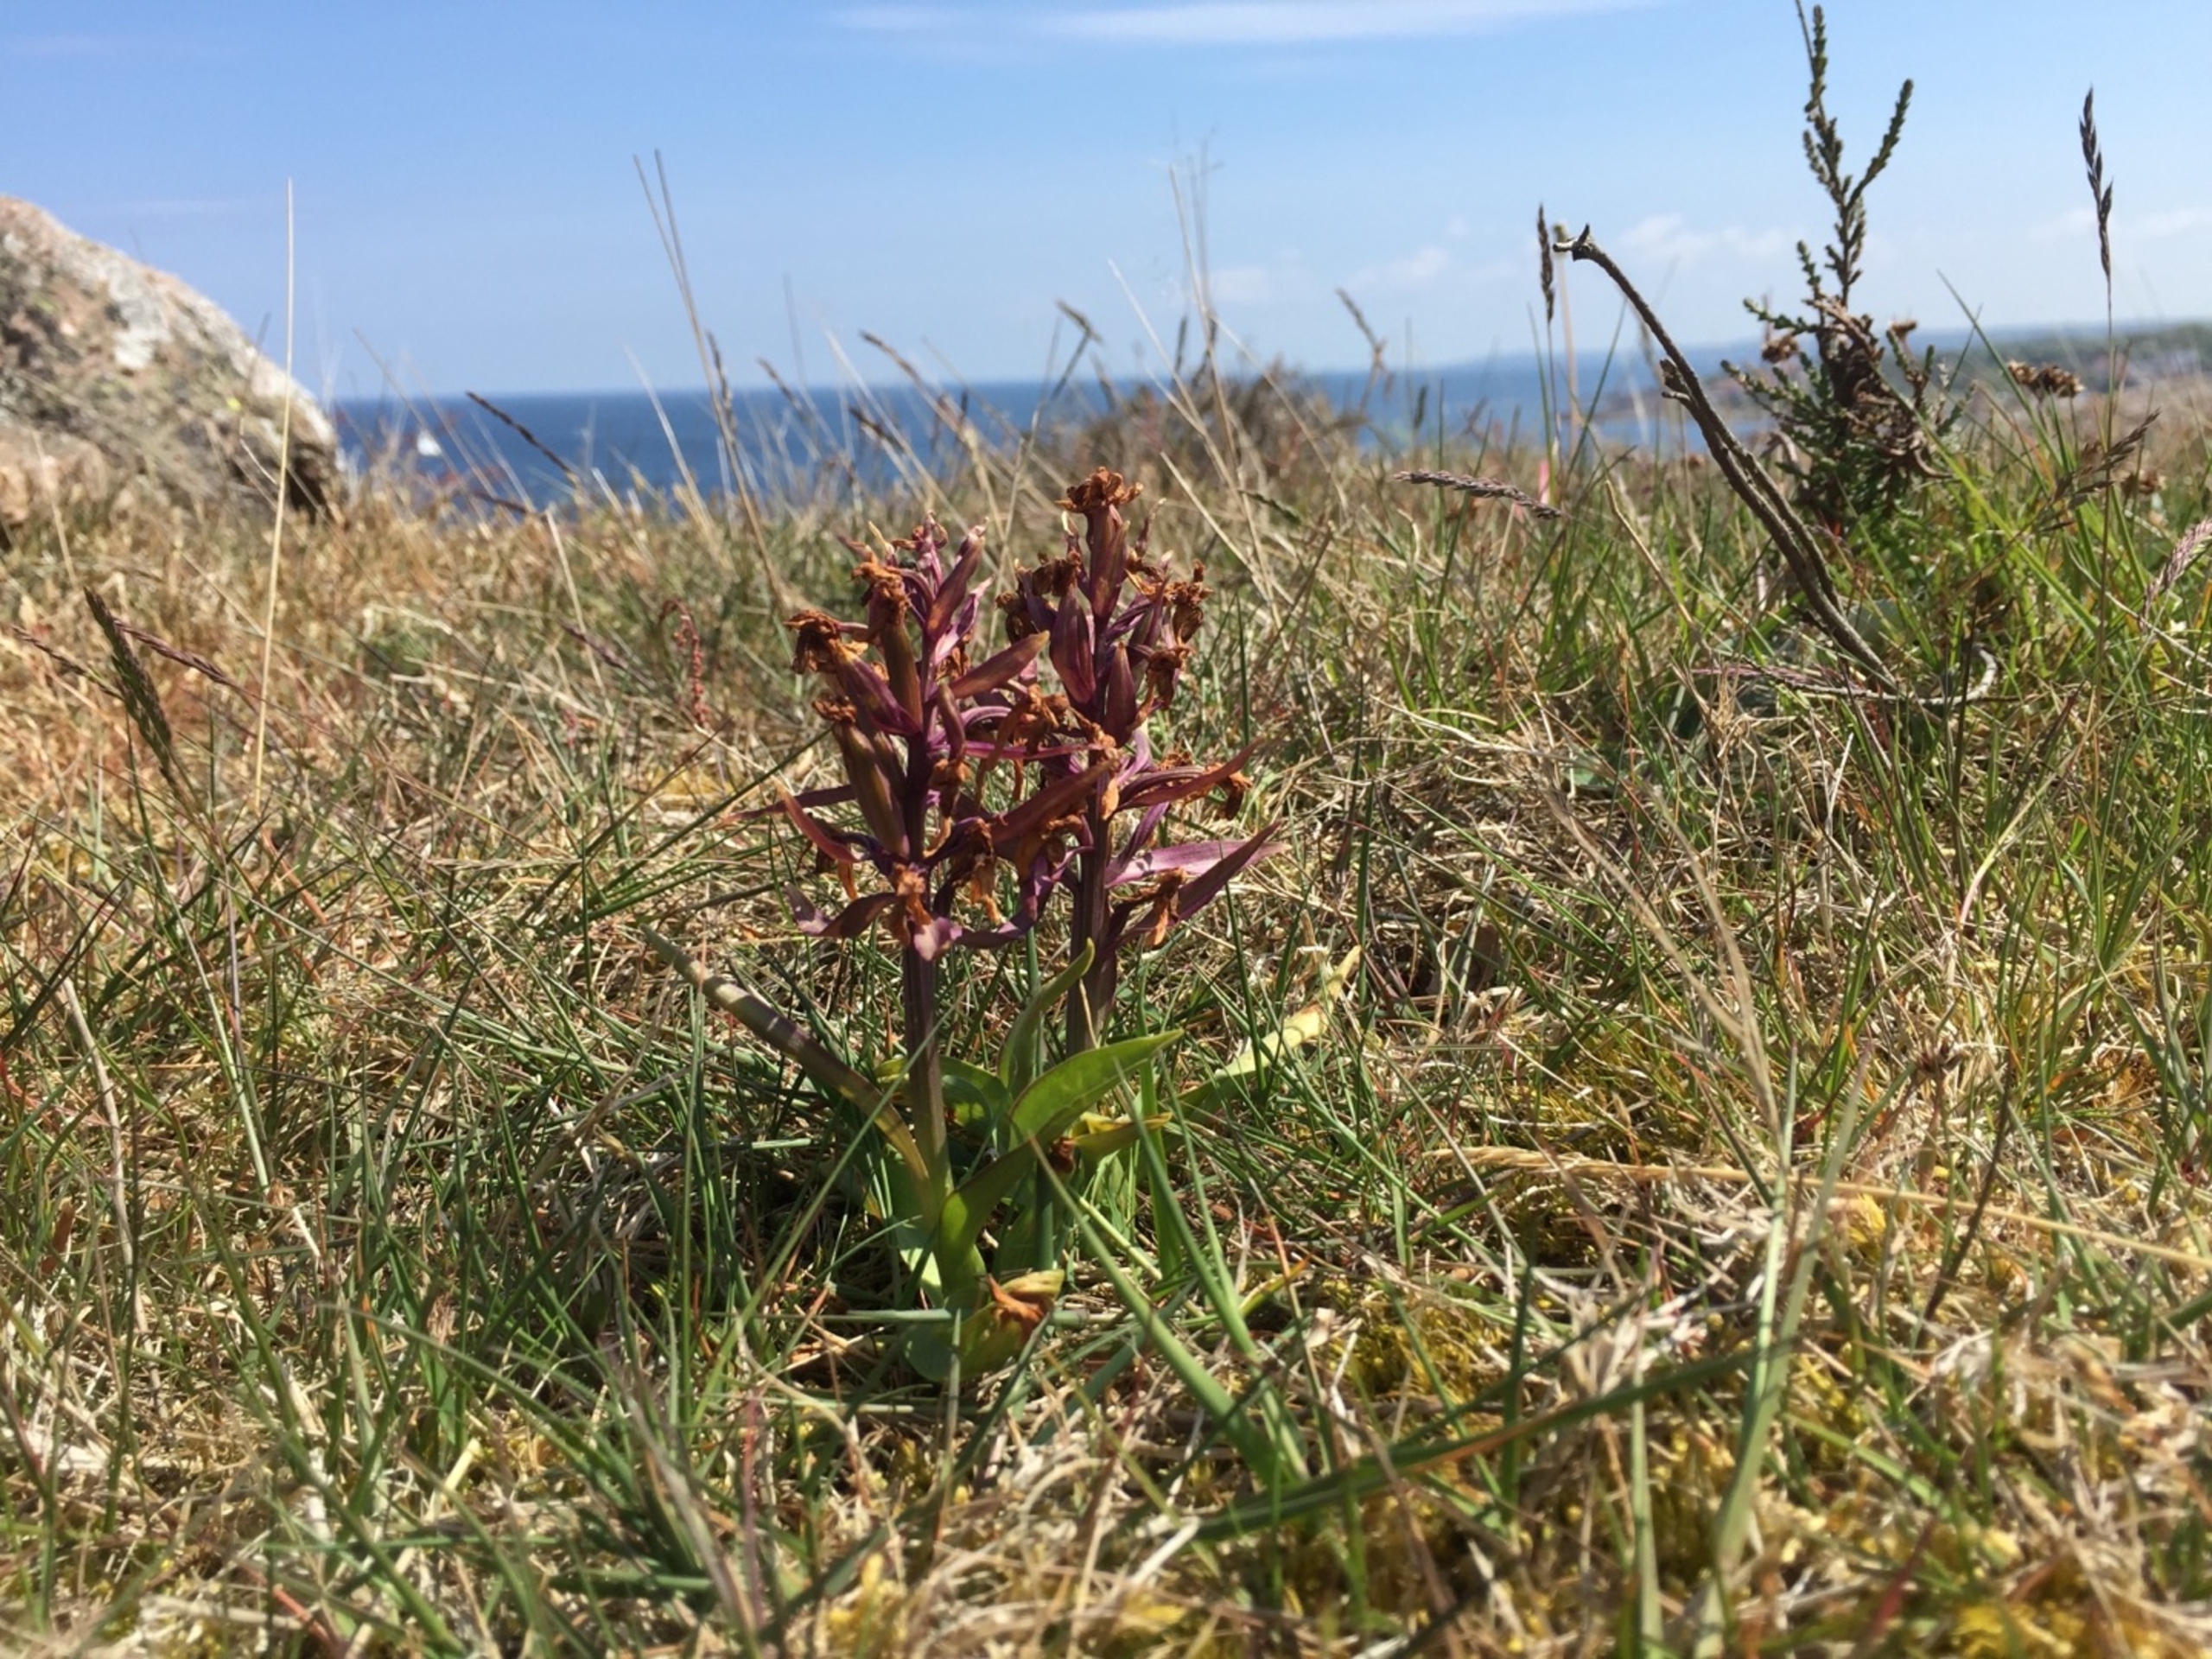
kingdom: Plantae
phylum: Tracheophyta
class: Liliopsida
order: Asparagales
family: Orchidaceae
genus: Dactylorhiza
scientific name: Dactylorhiza sambucina
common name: Hylde-gøgeurt
